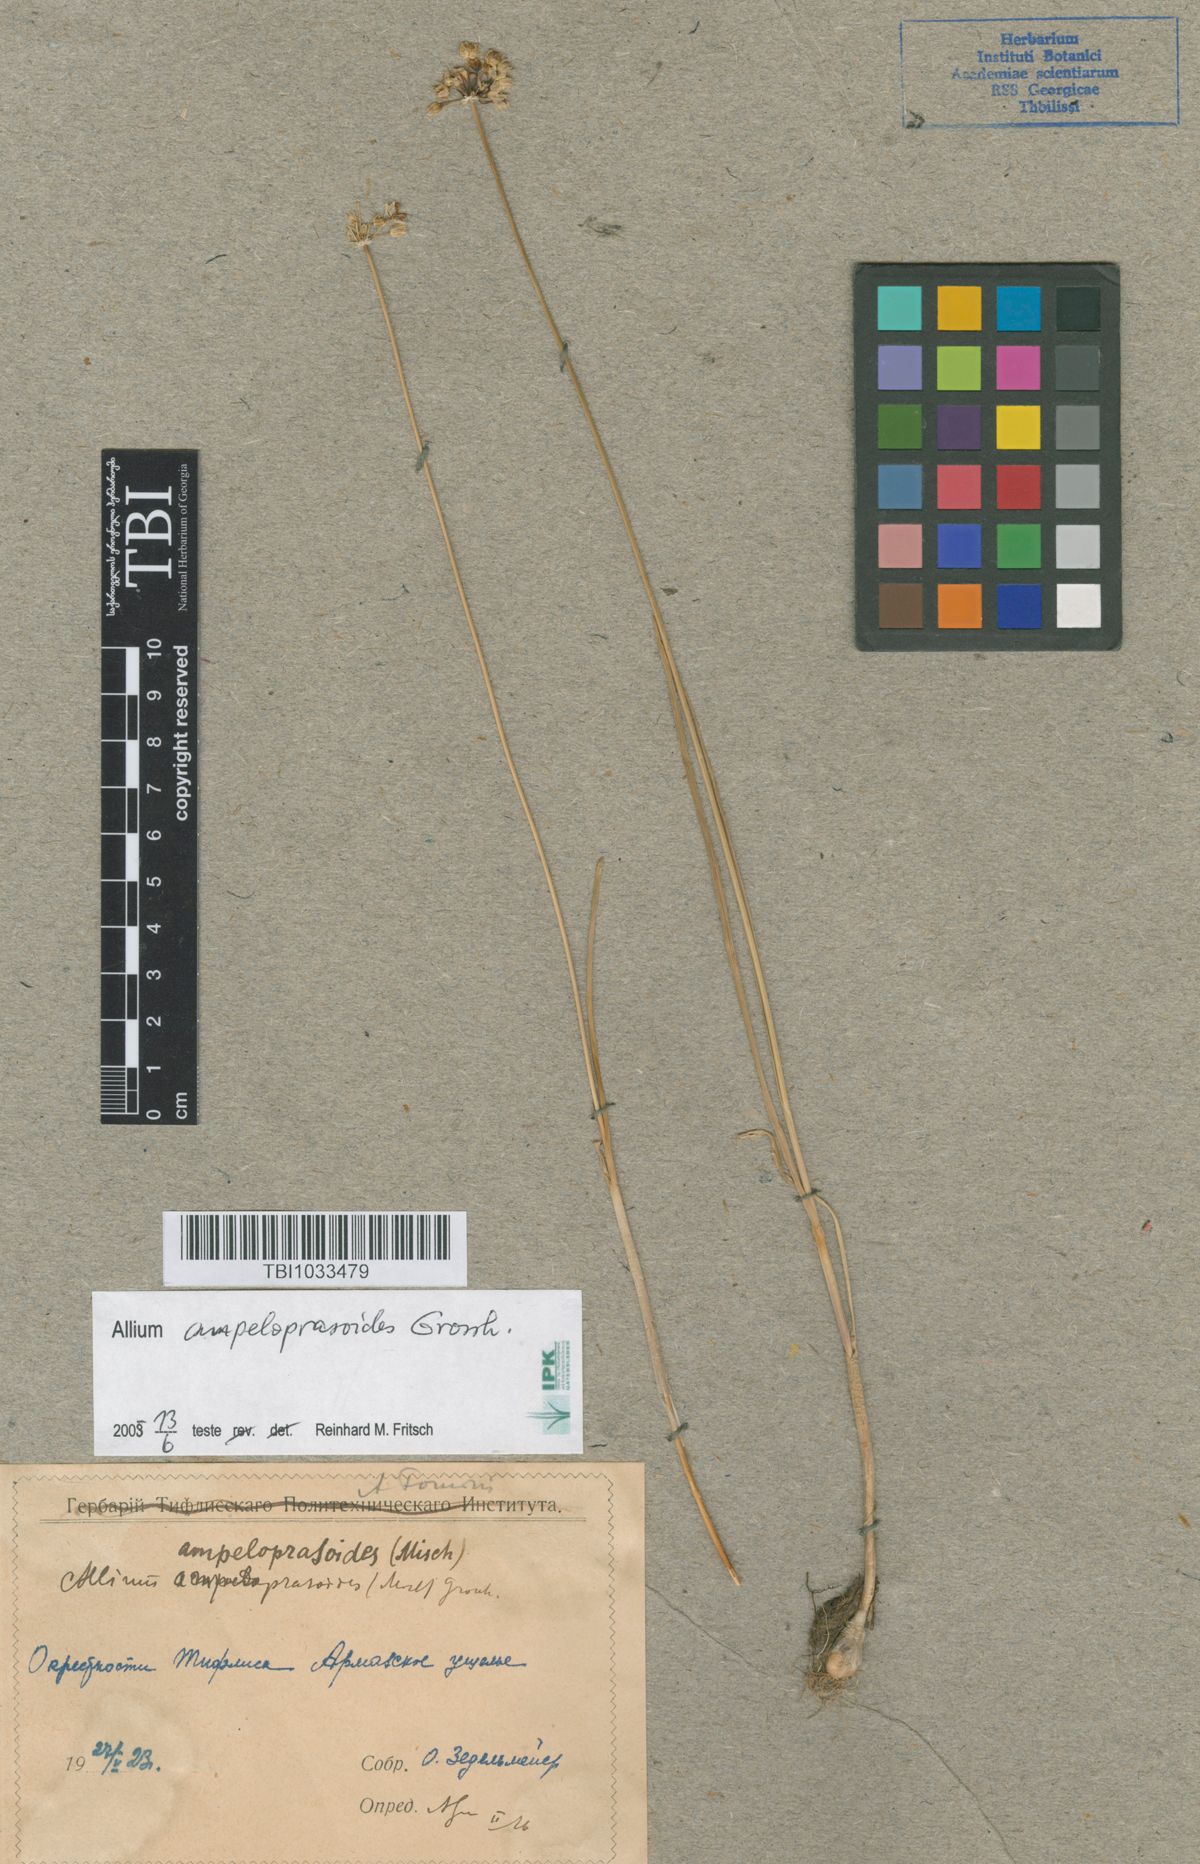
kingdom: Plantae
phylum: Tracheophyta
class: Liliopsida
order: Asparagales
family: Amaryllidaceae
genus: Allium
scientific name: Allium gramineum
